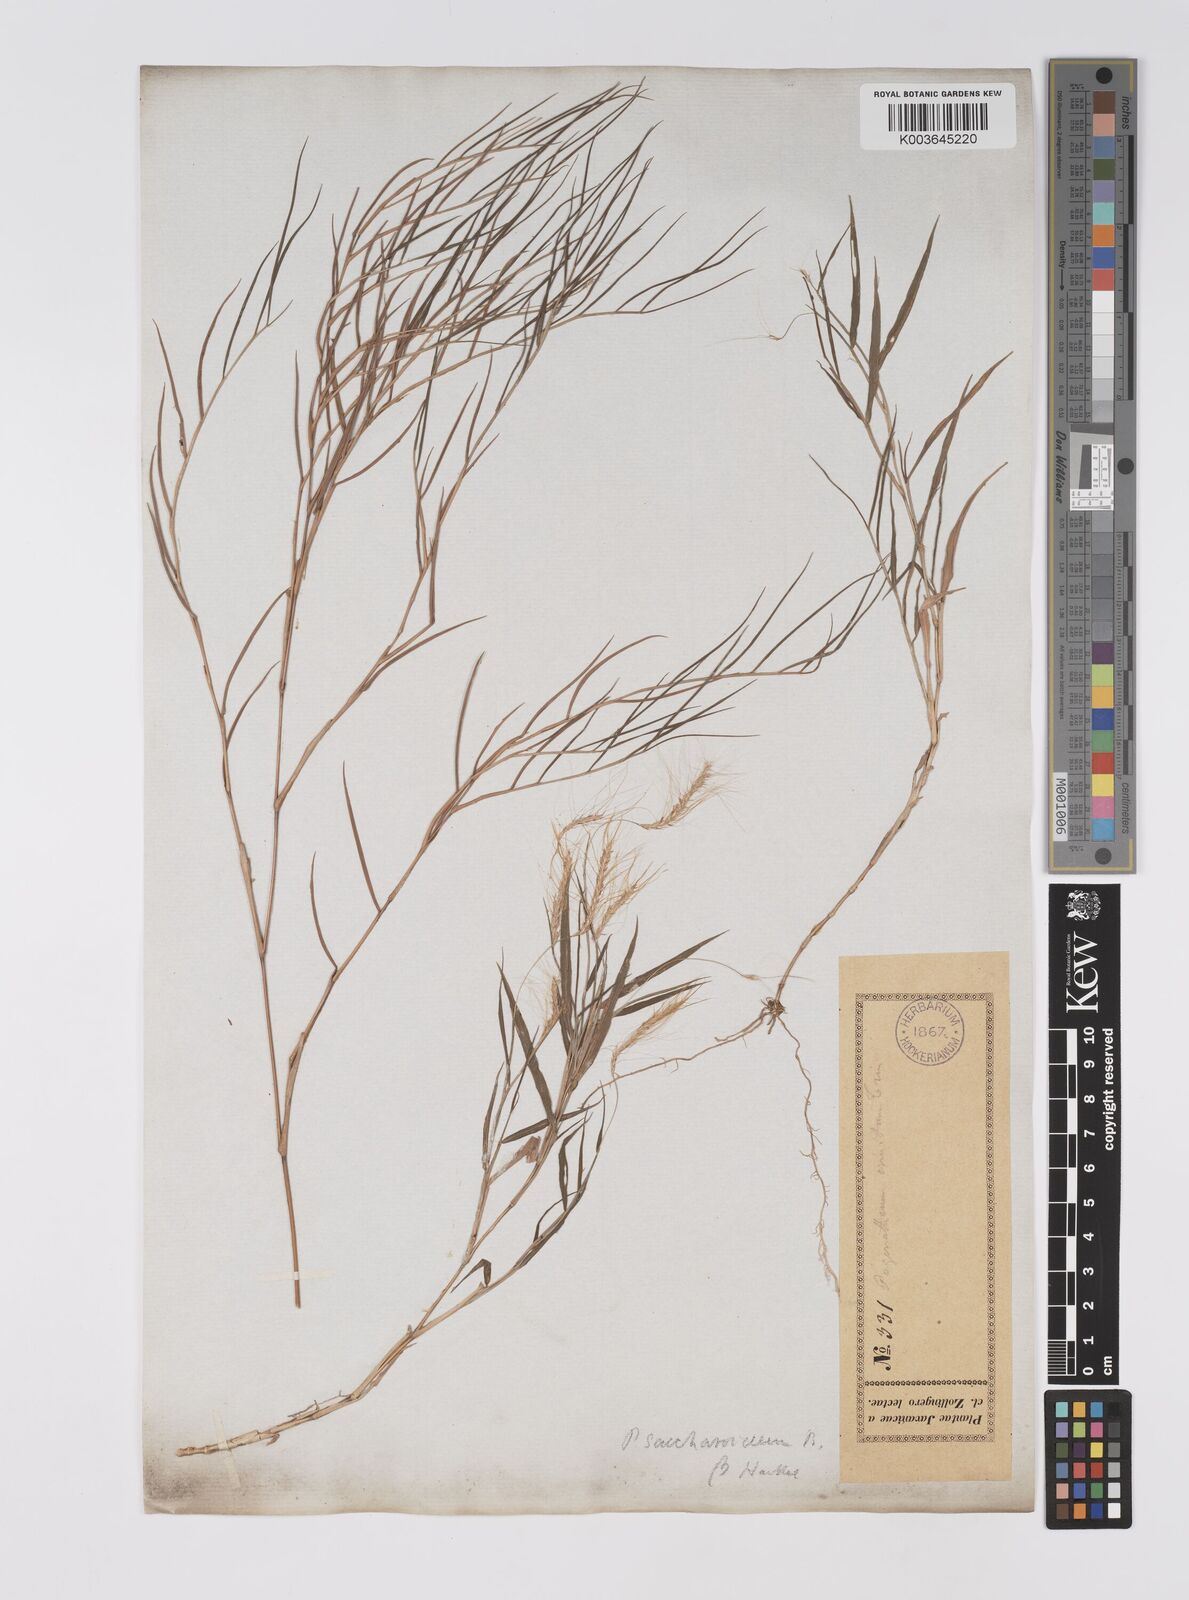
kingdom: Plantae
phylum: Tracheophyta
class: Liliopsida
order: Poales
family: Poaceae
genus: Pogonatherum
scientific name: Pogonatherum paniceum
